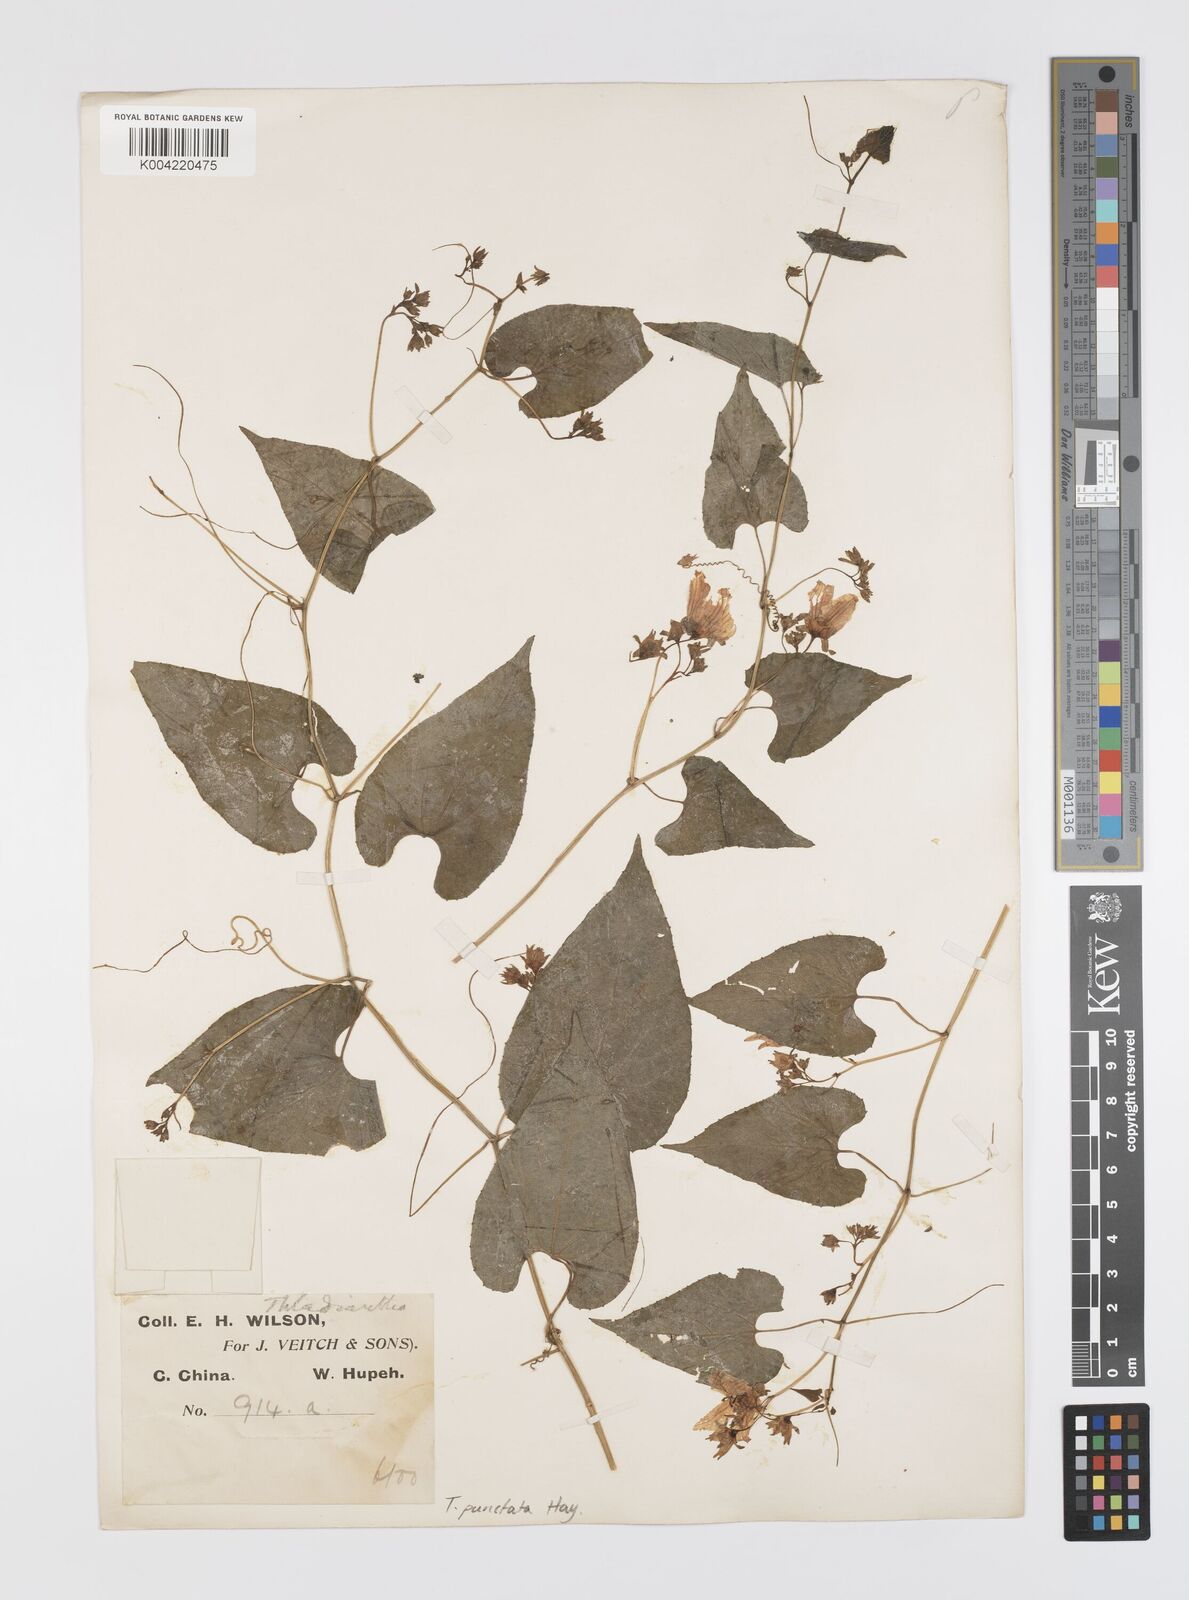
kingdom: Plantae
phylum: Tracheophyta
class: Magnoliopsida
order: Cucurbitales
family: Cucurbitaceae
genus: Thladiantha
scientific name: Thladiantha punctata
